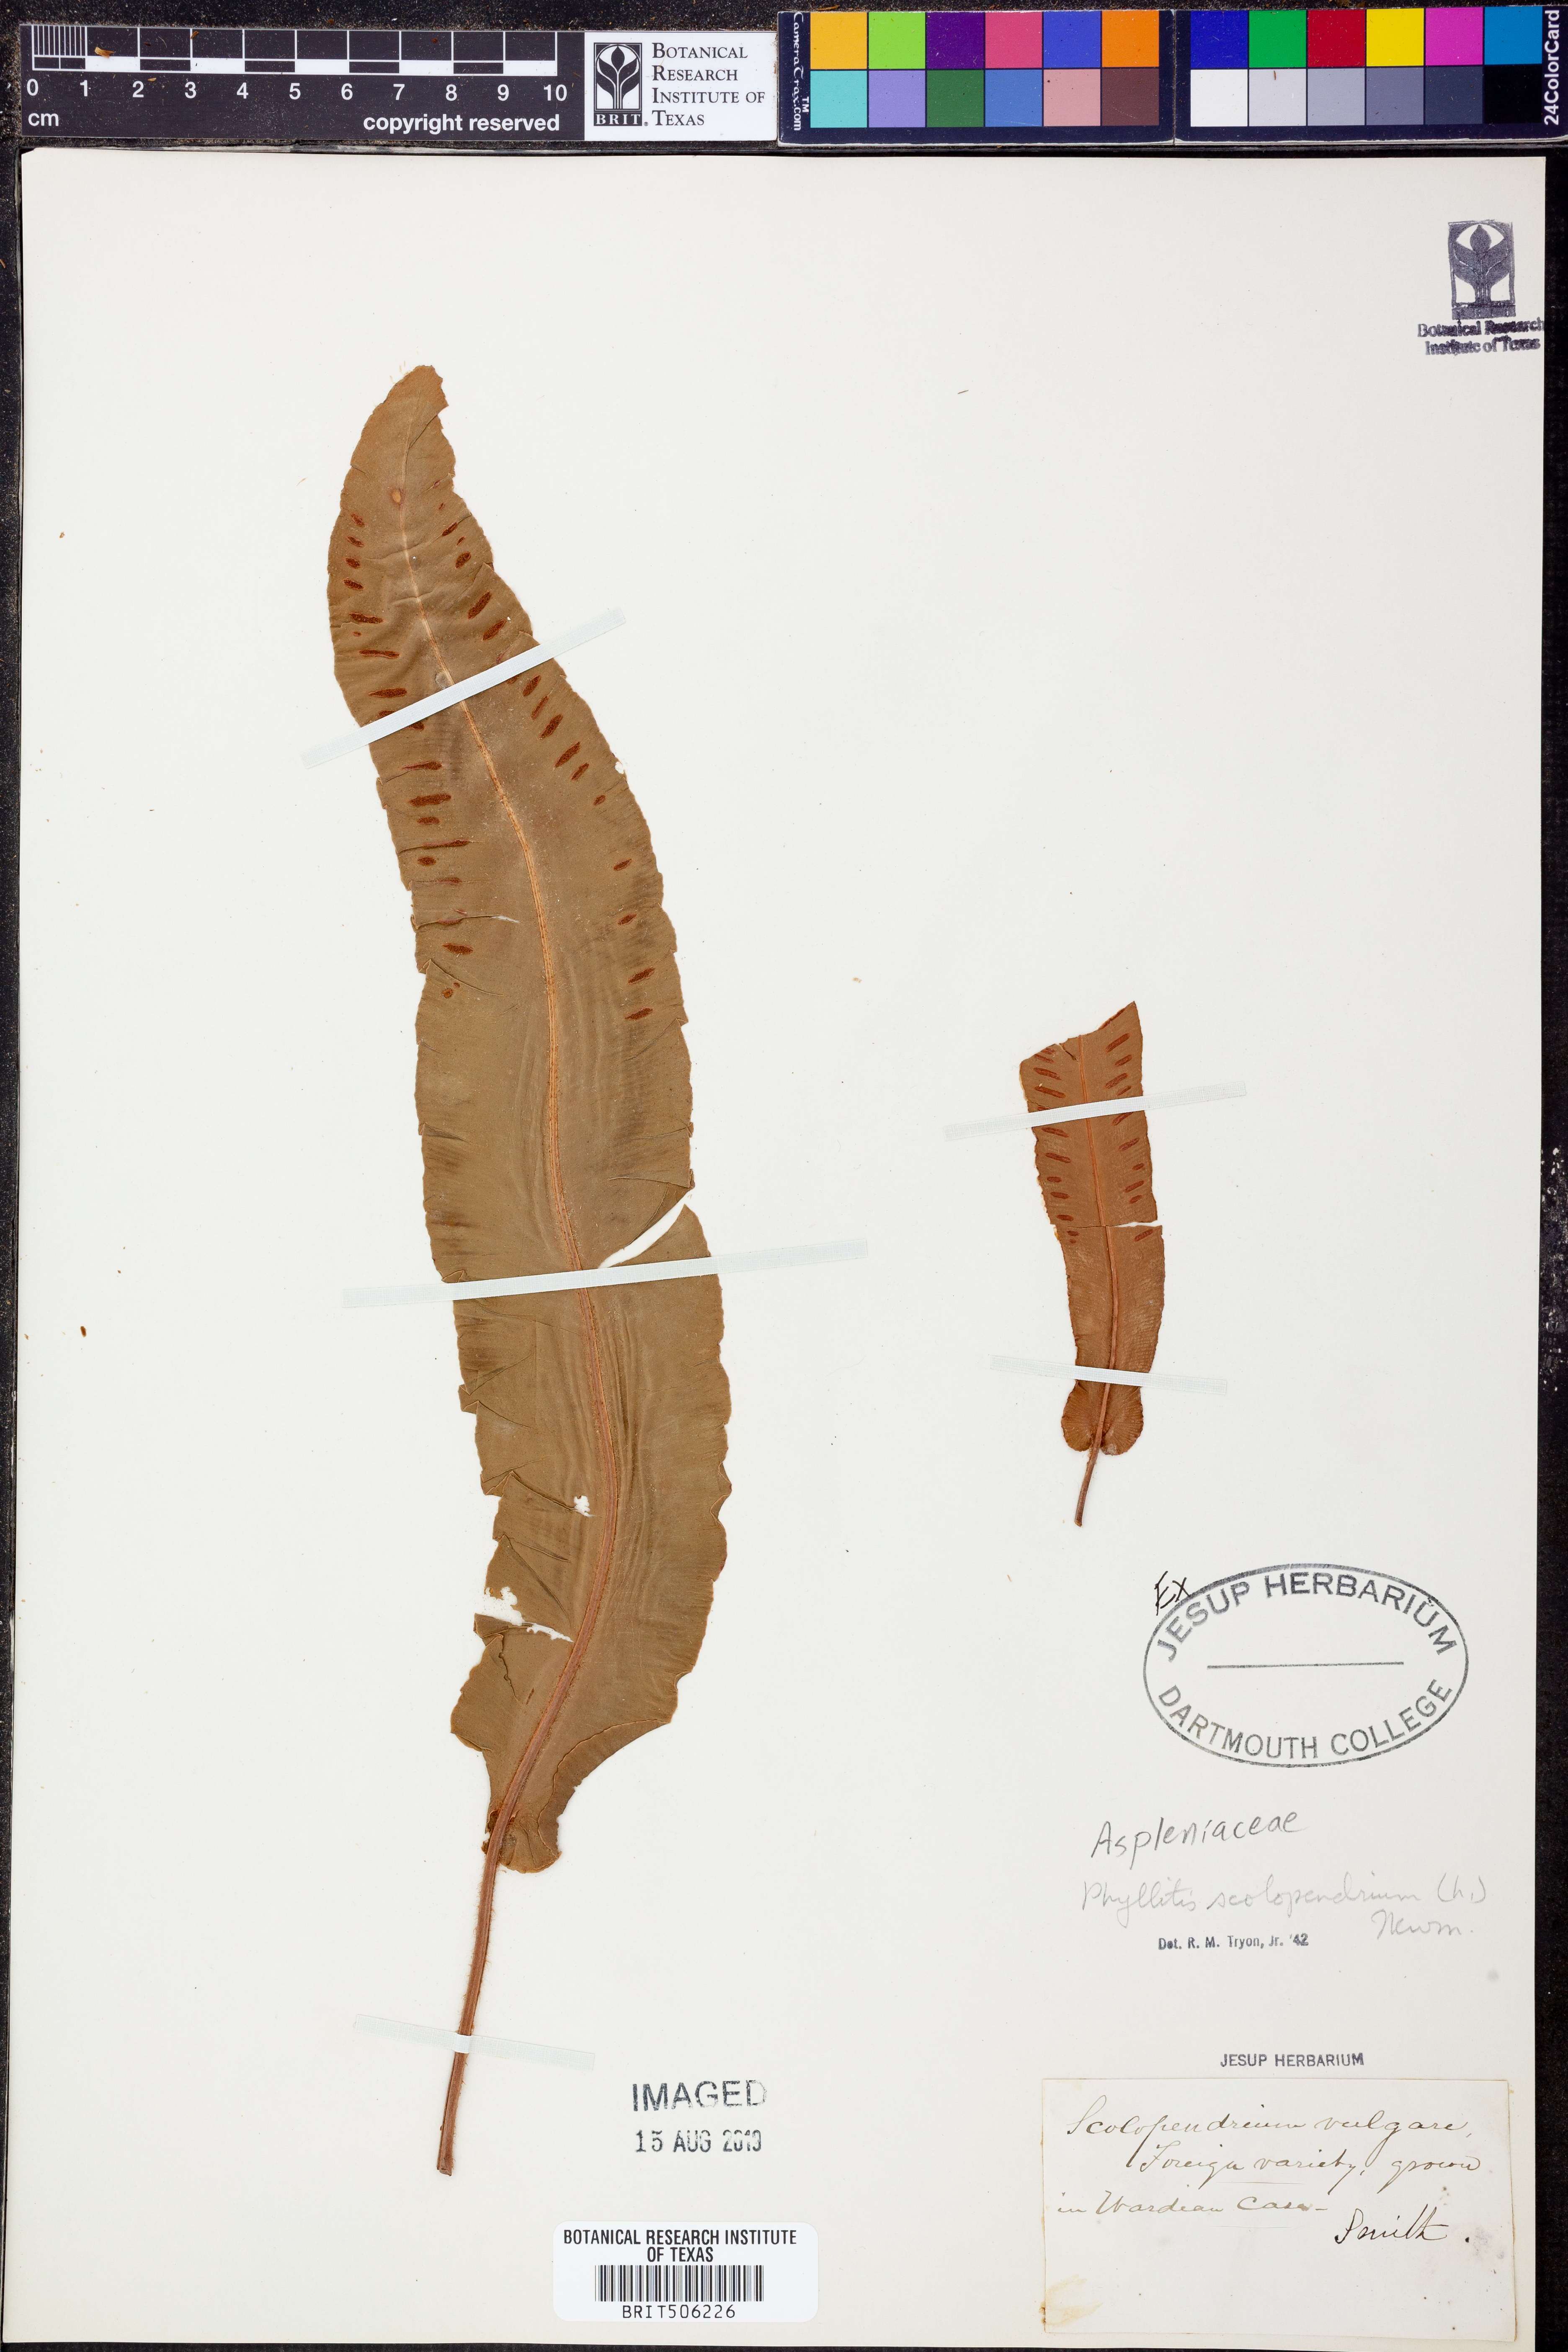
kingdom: Plantae
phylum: Tracheophyta
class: Polypodiopsida
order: Polypodiales
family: Aspleniaceae
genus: Asplenium
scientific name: Asplenium scolopendrium
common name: Hart's-tongue fern
